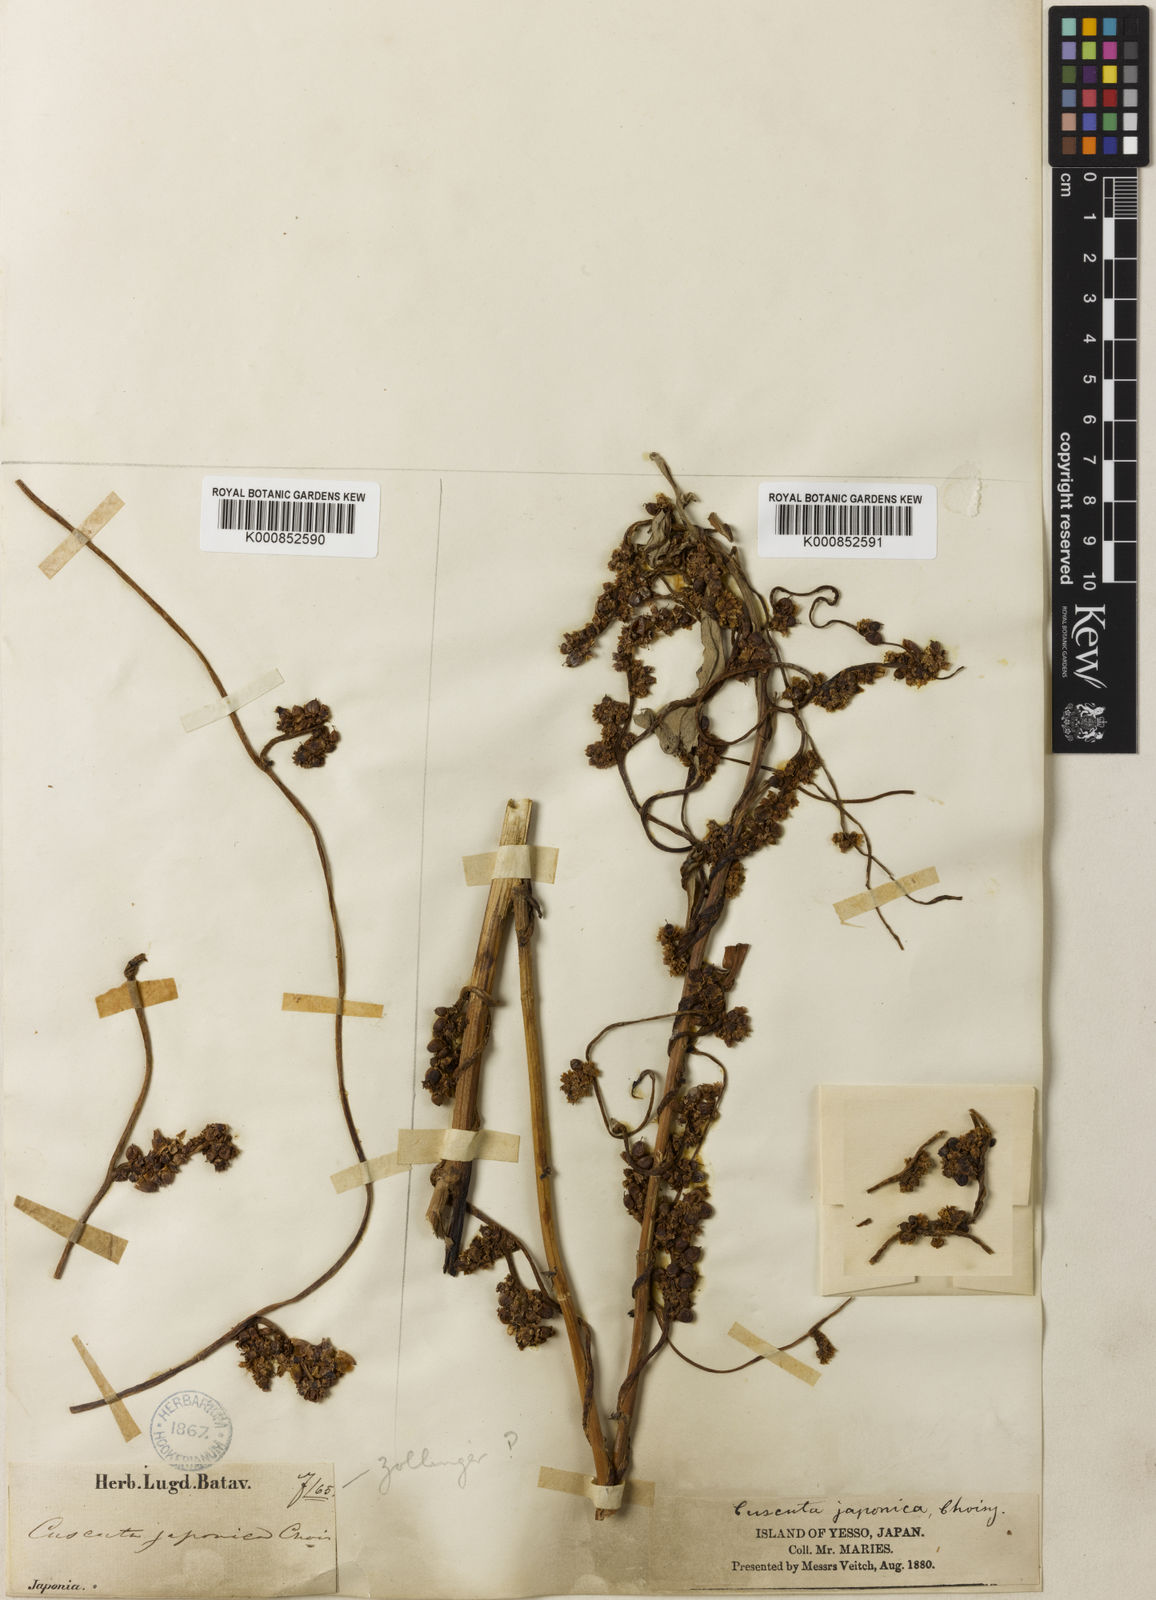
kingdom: Plantae
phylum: Tracheophyta
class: Magnoliopsida
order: Solanales
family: Convolvulaceae
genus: Cuscuta
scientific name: Cuscuta japonica
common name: Japanese dodder
